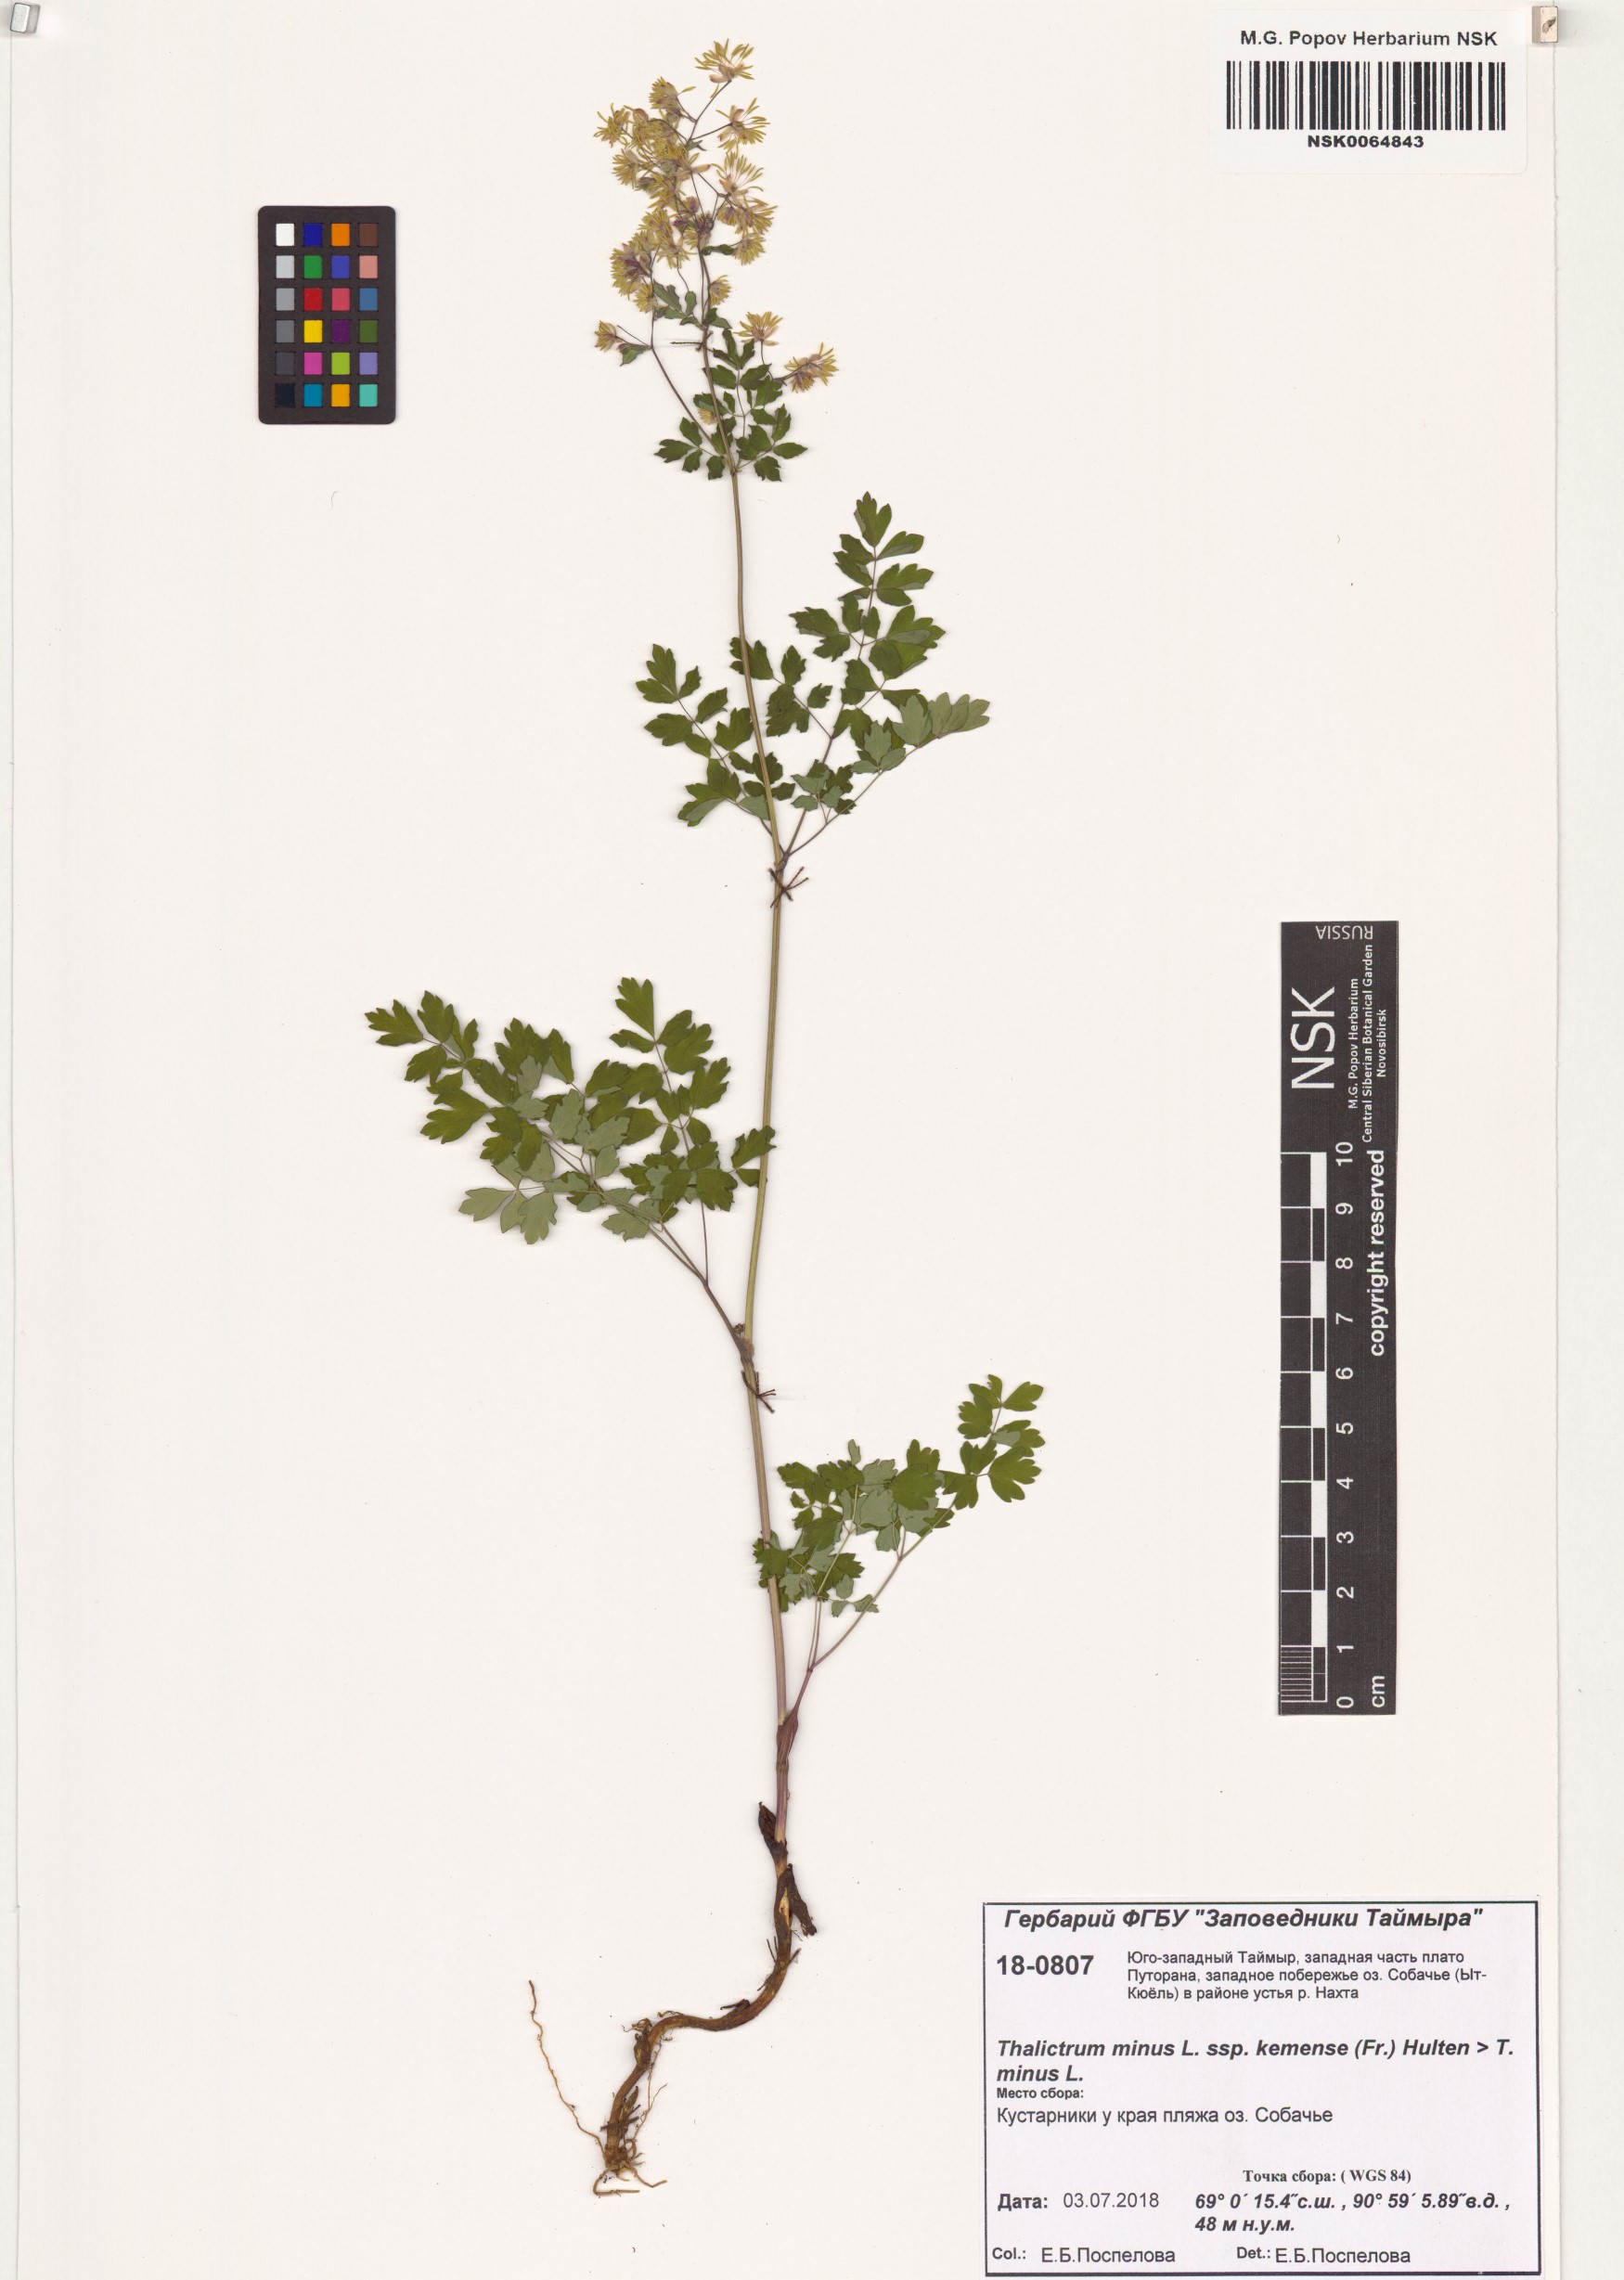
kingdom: Plantae
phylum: Tracheophyta
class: Magnoliopsida
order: Ranunculales
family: Ranunculaceae
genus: Thalictrum
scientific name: Thalictrum minus
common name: Lesser meadow-rue
